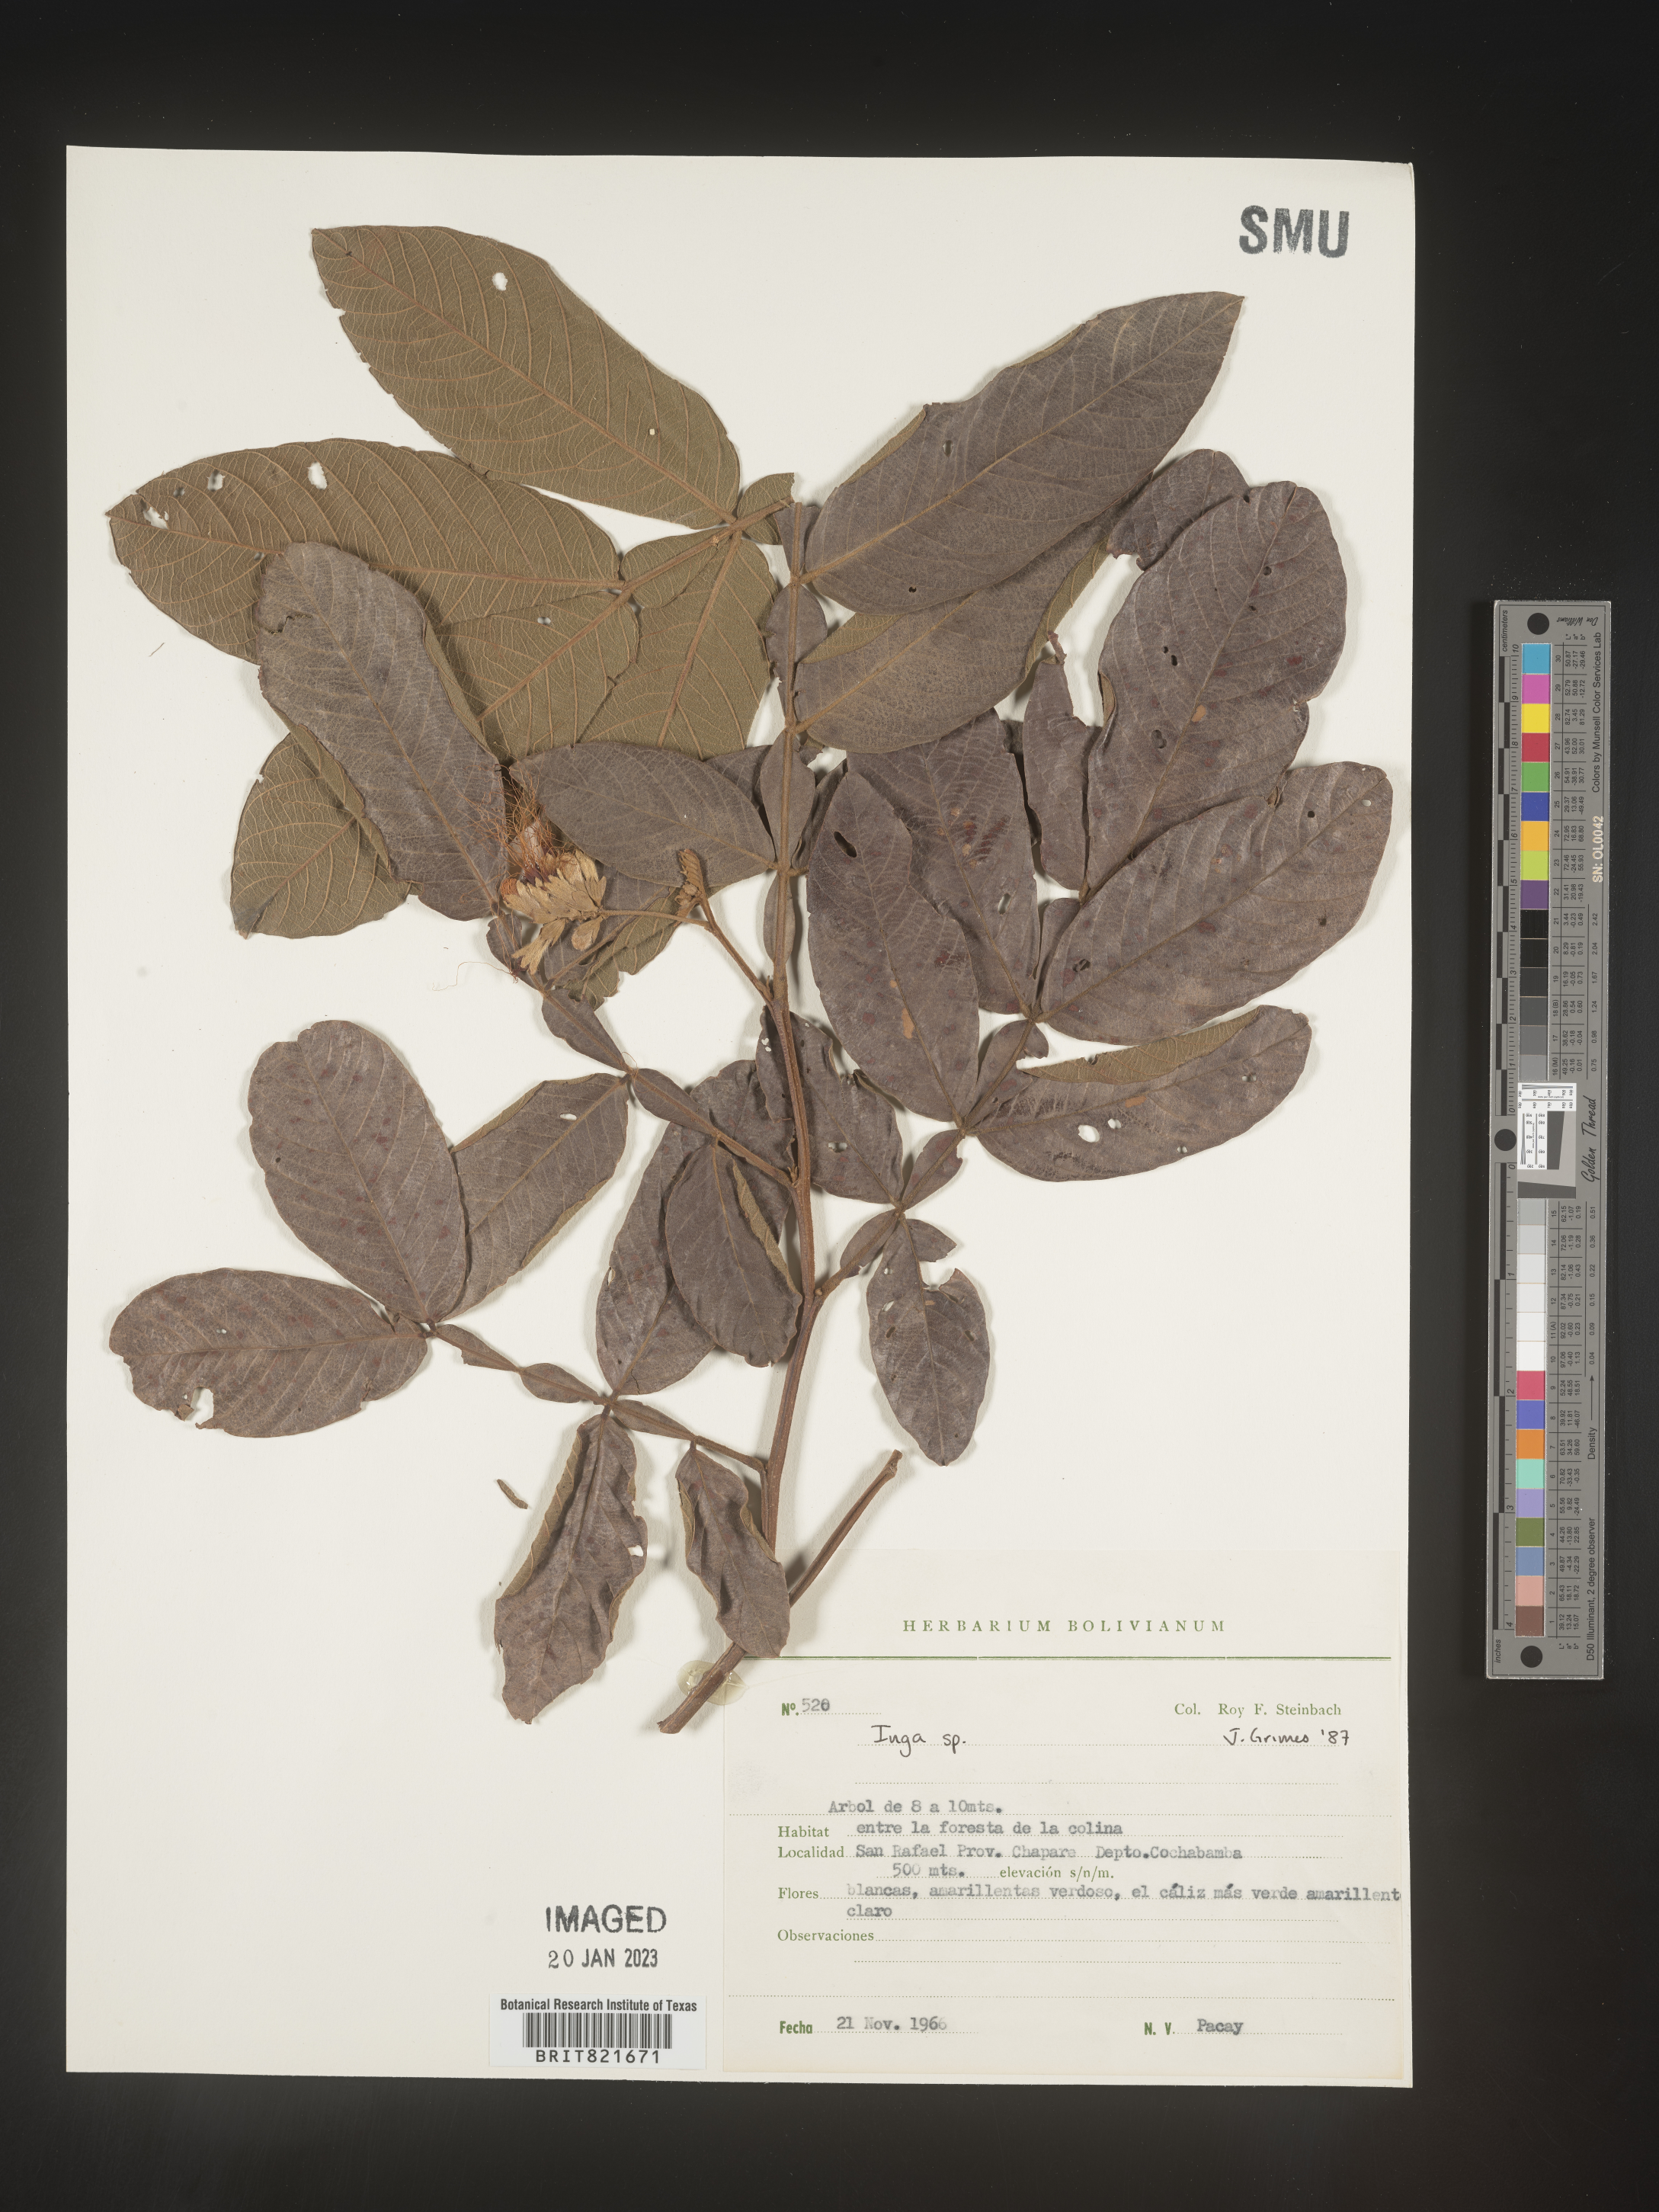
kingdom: Plantae
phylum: Tracheophyta
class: Magnoliopsida
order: Fabales
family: Fabaceae
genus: Inga
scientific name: Inga
